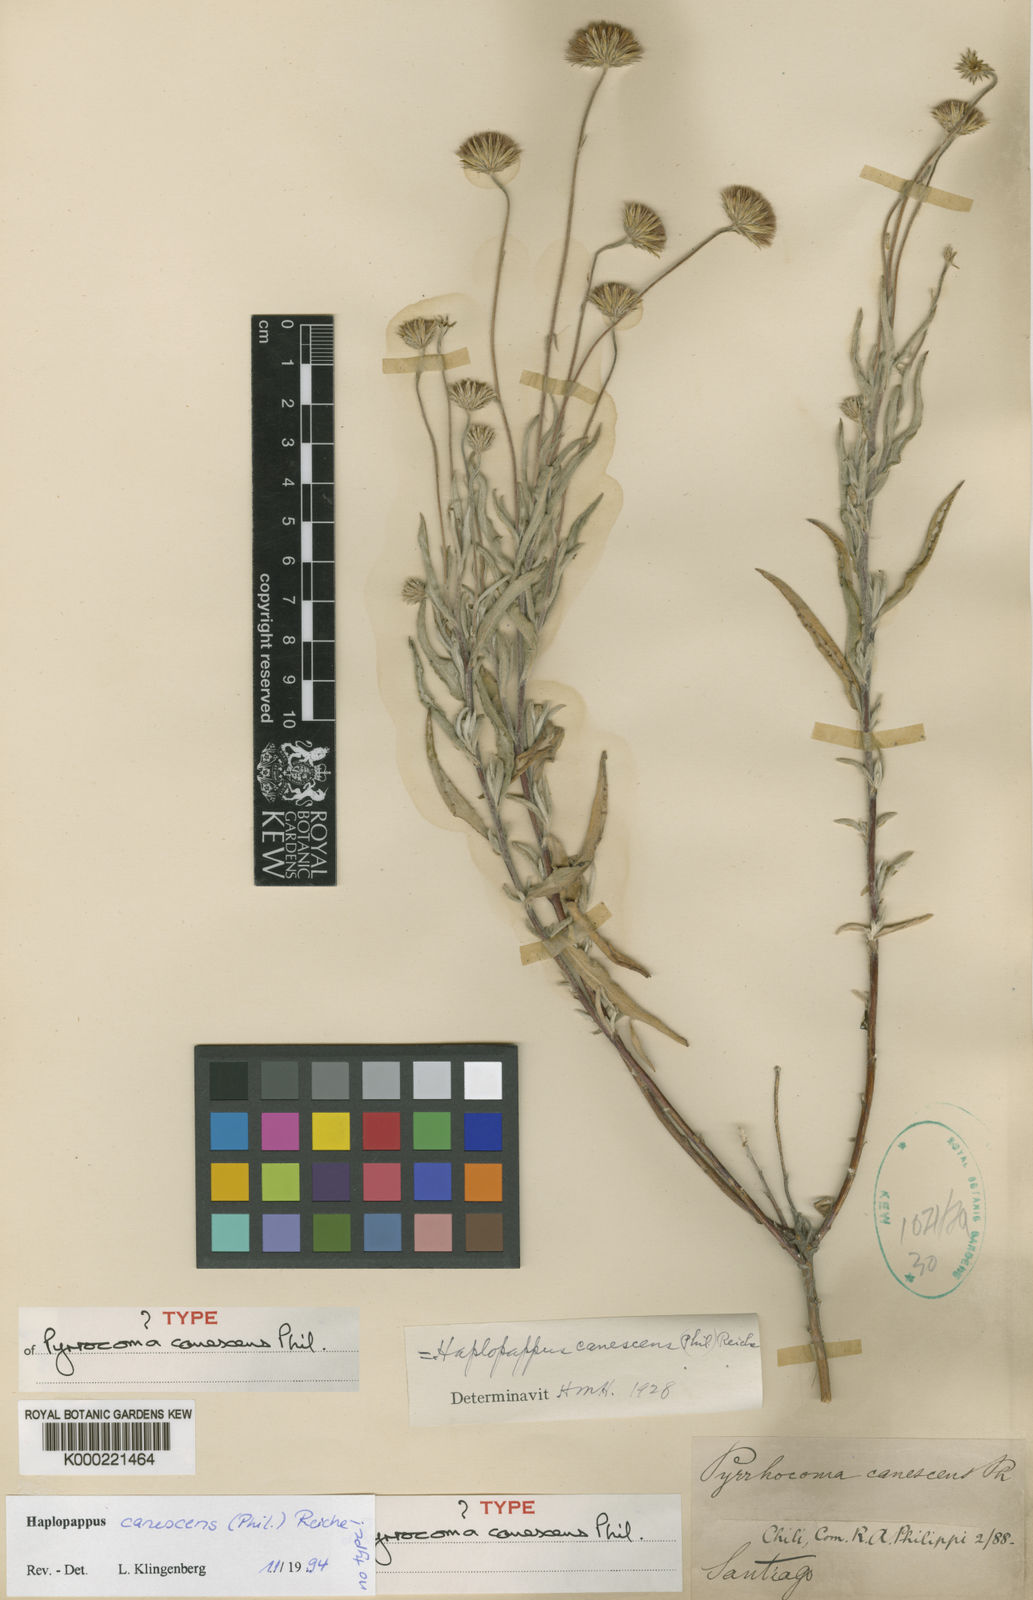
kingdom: Plantae
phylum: Tracheophyta
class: Magnoliopsida
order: Asterales
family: Asteraceae
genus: Haplopappus
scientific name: Haplopappus poeppigianus
